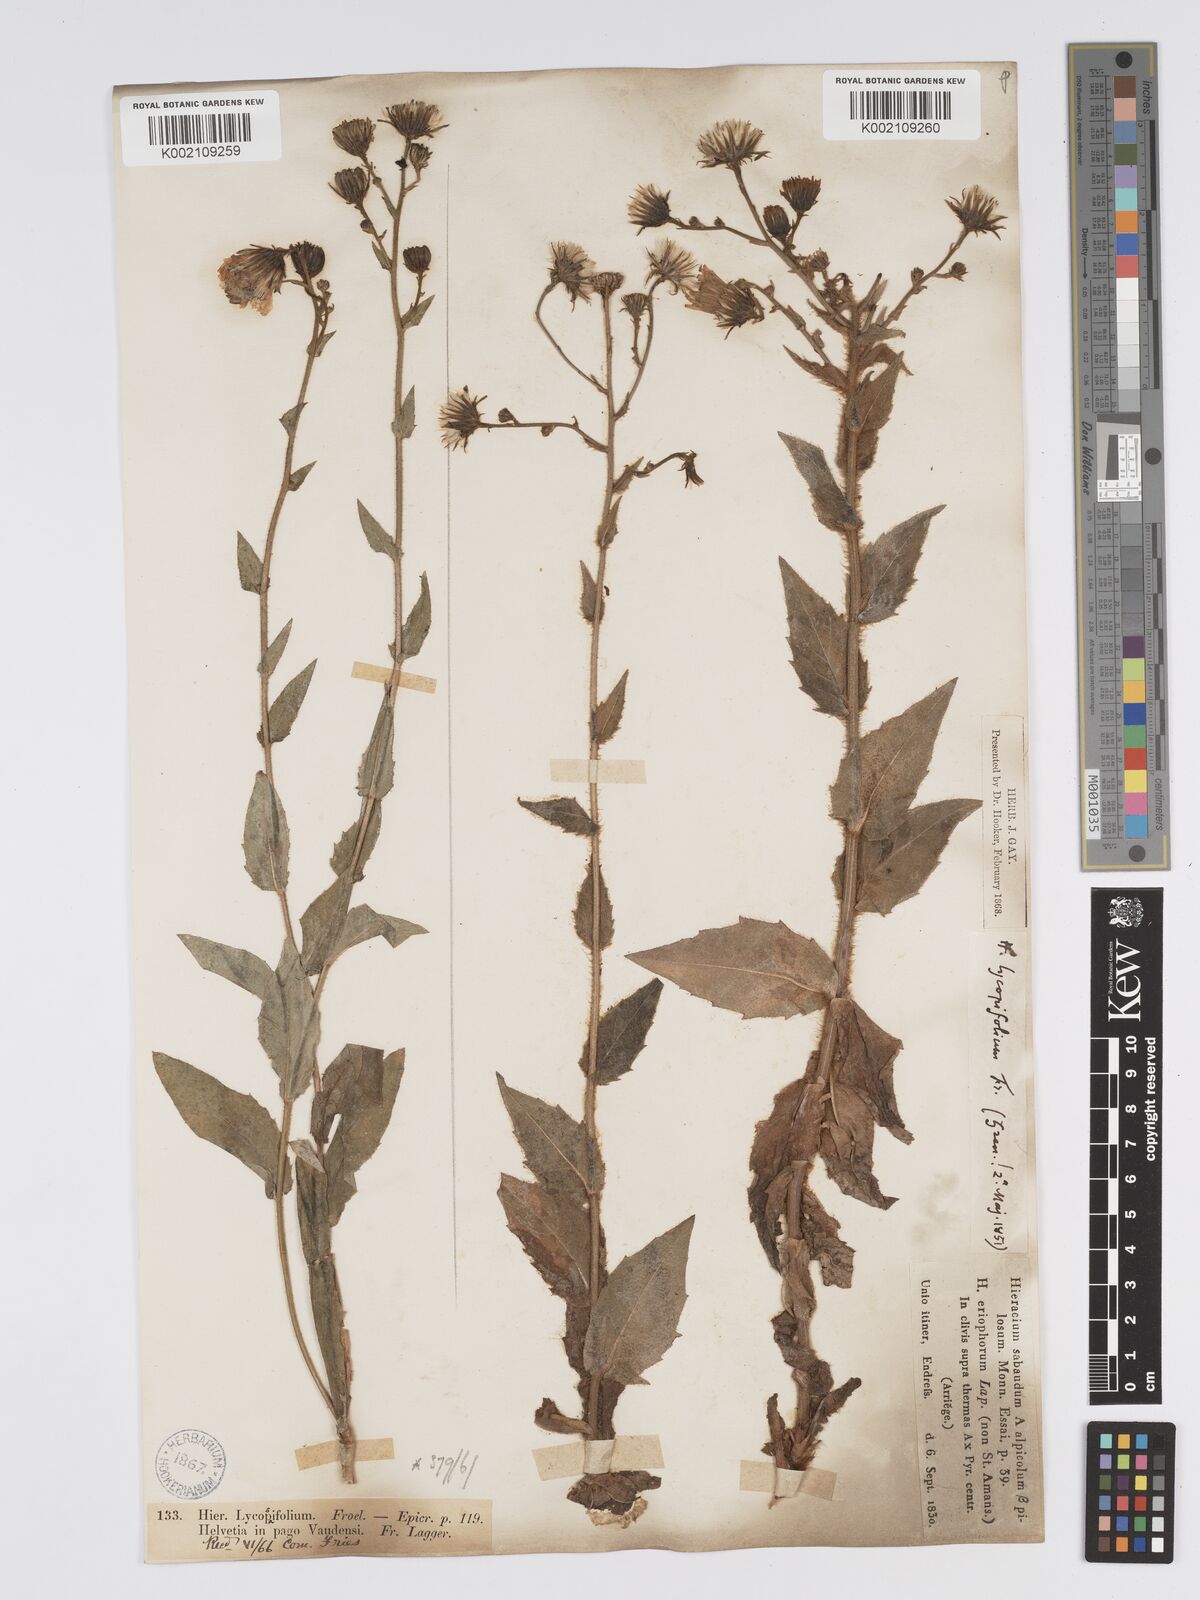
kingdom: Plantae
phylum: Tracheophyta
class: Magnoliopsida
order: Asterales
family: Asteraceae
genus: Hieracium
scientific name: Hieracium lycopifolium
